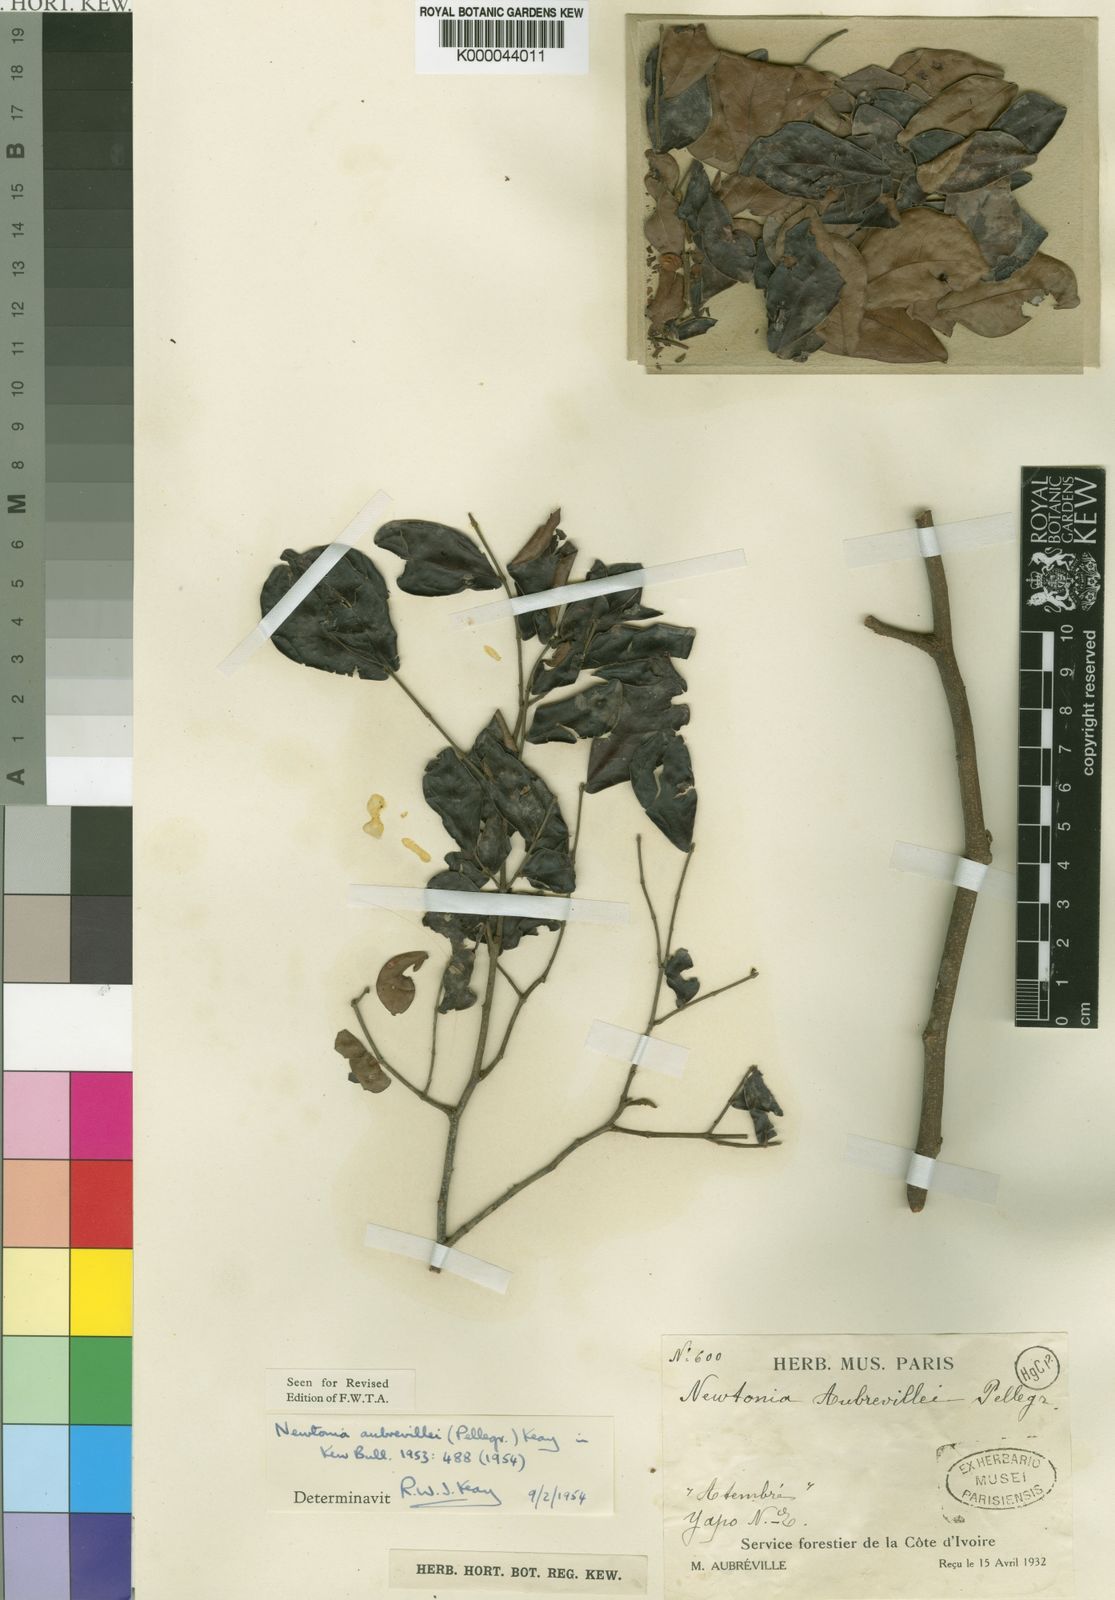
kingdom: Plantae
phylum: Tracheophyta
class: Magnoliopsida
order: Fabales
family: Fabaceae
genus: Newtonia
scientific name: Newtonia aubrevillei
